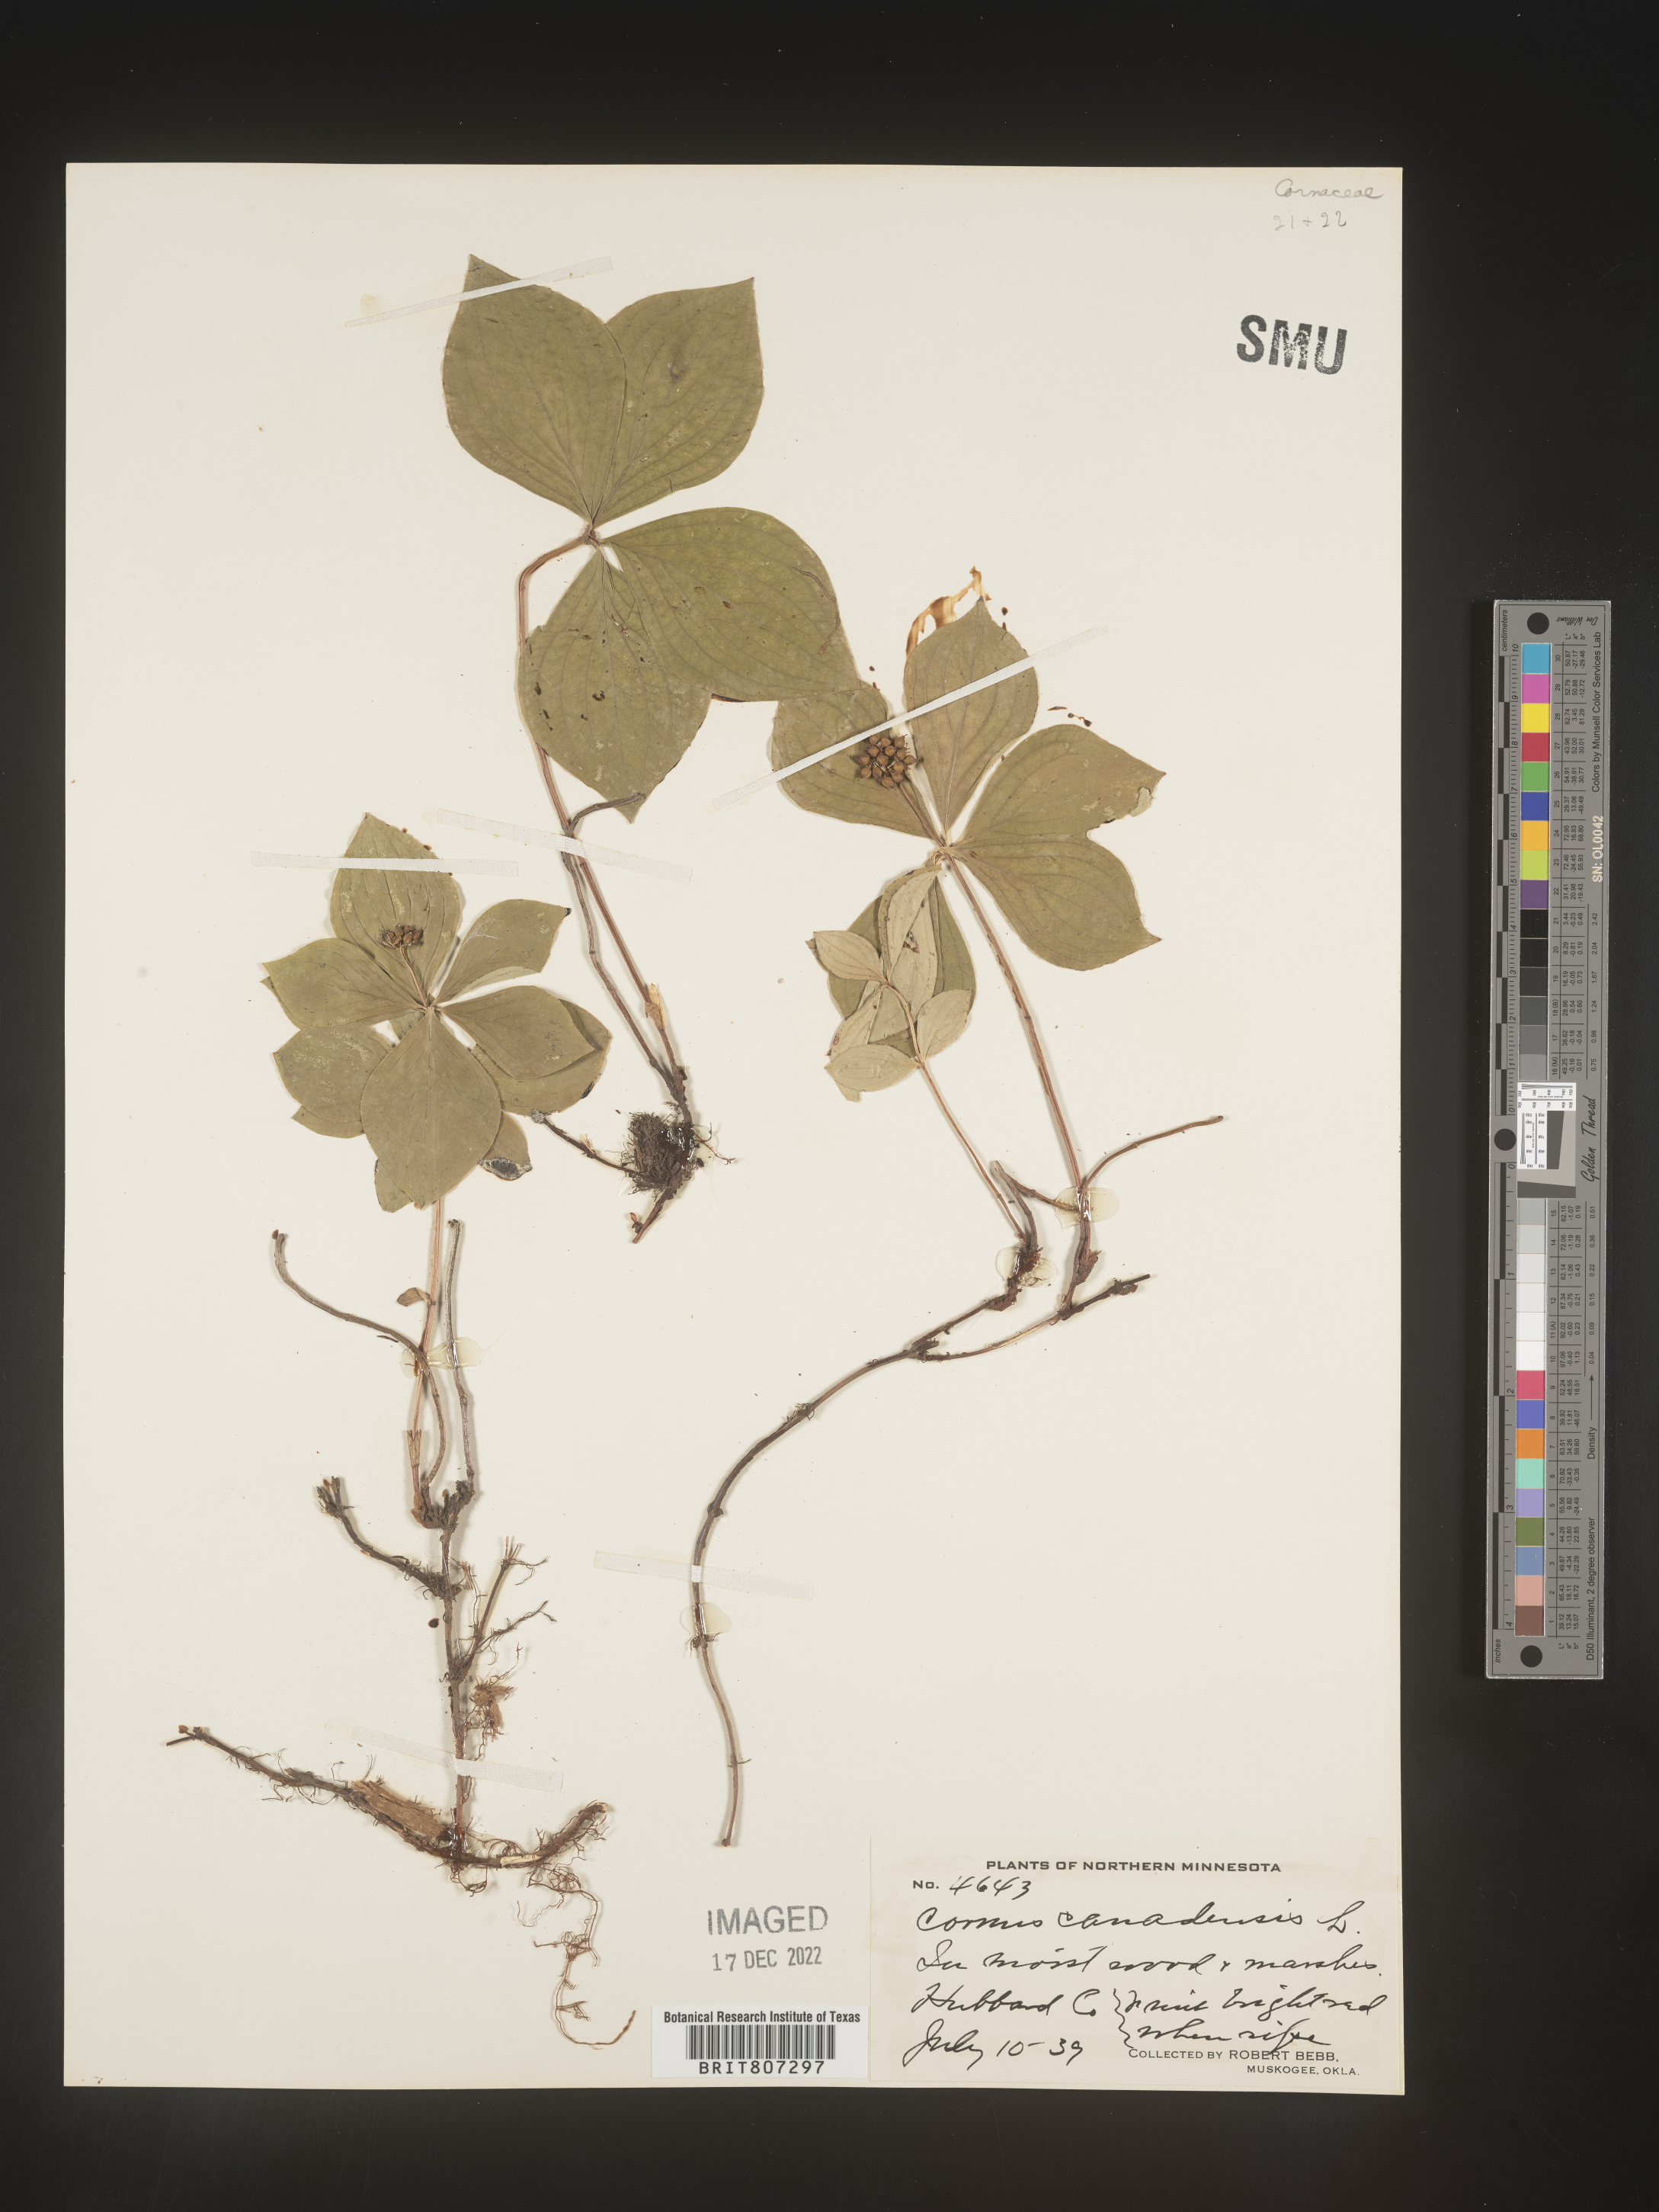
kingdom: Plantae
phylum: Tracheophyta
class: Magnoliopsida
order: Cornales
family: Cornaceae
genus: Cornus
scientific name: Cornus canadensis
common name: Creeping dogwood
